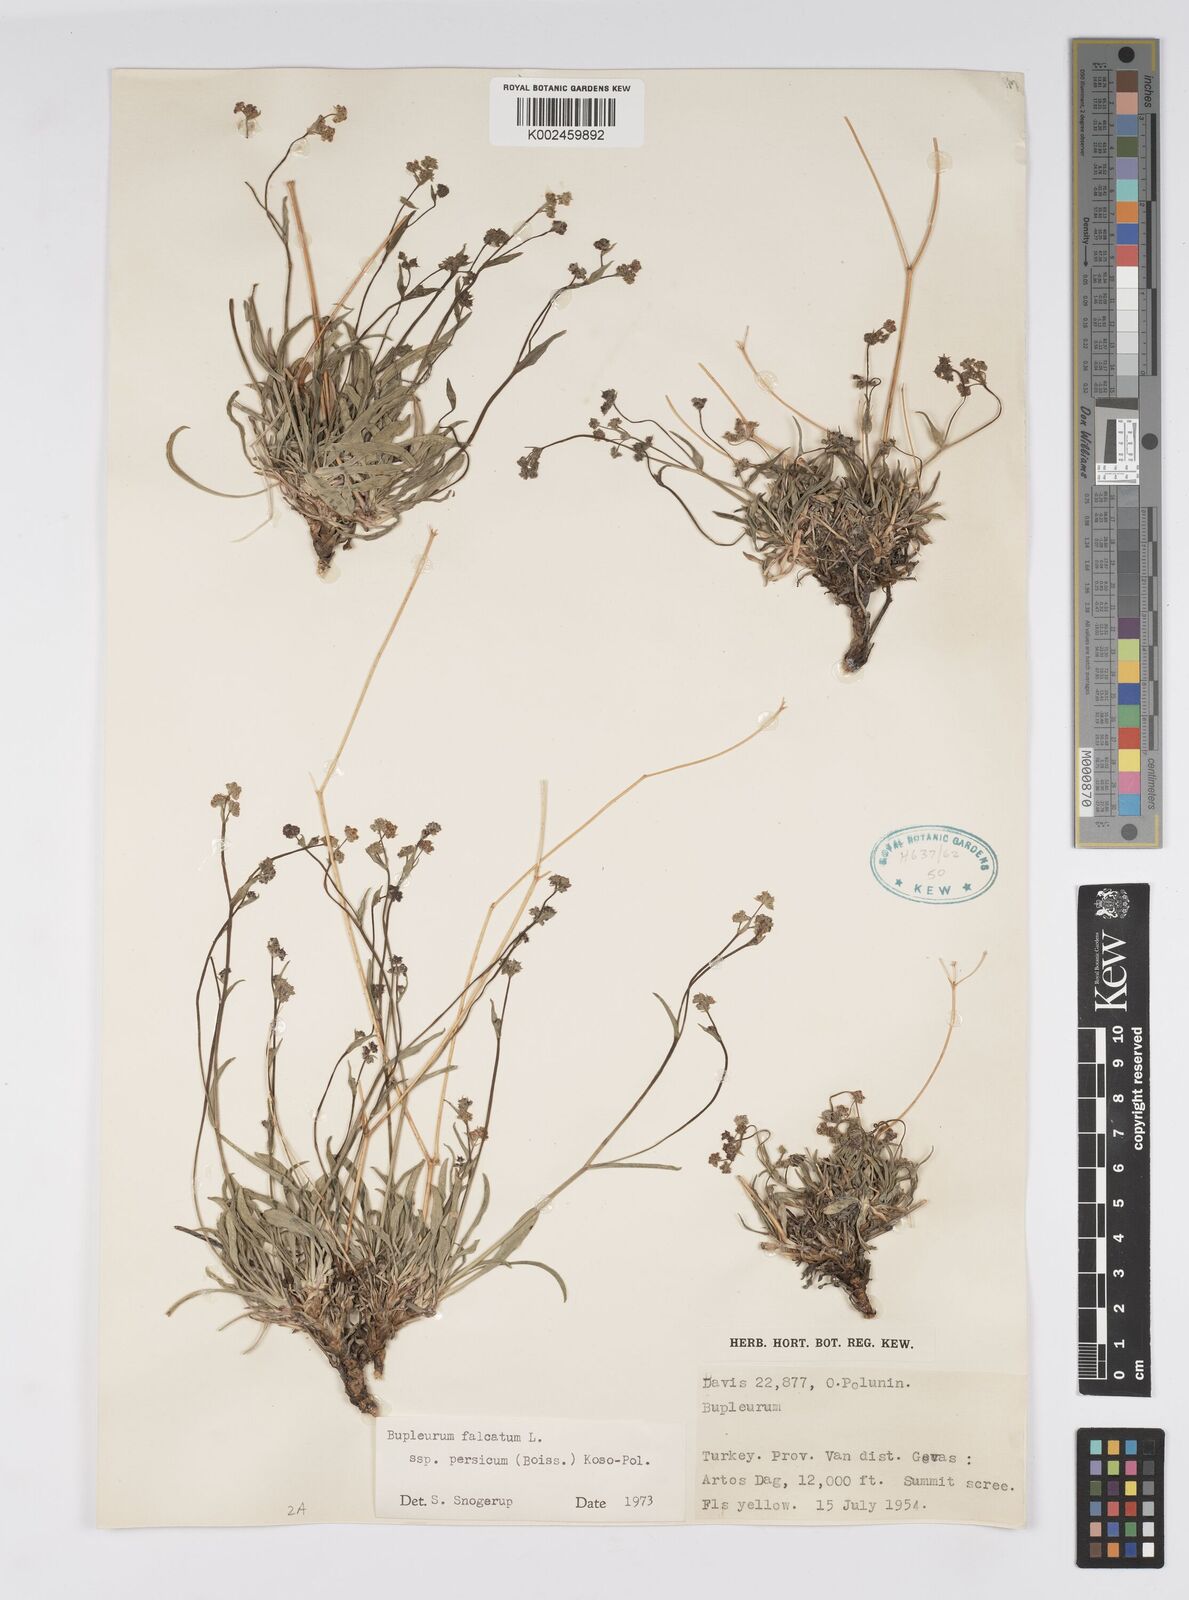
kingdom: Plantae
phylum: Tracheophyta
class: Magnoliopsida
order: Apiales
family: Apiaceae
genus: Bupleurum
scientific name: Bupleurum persicum
